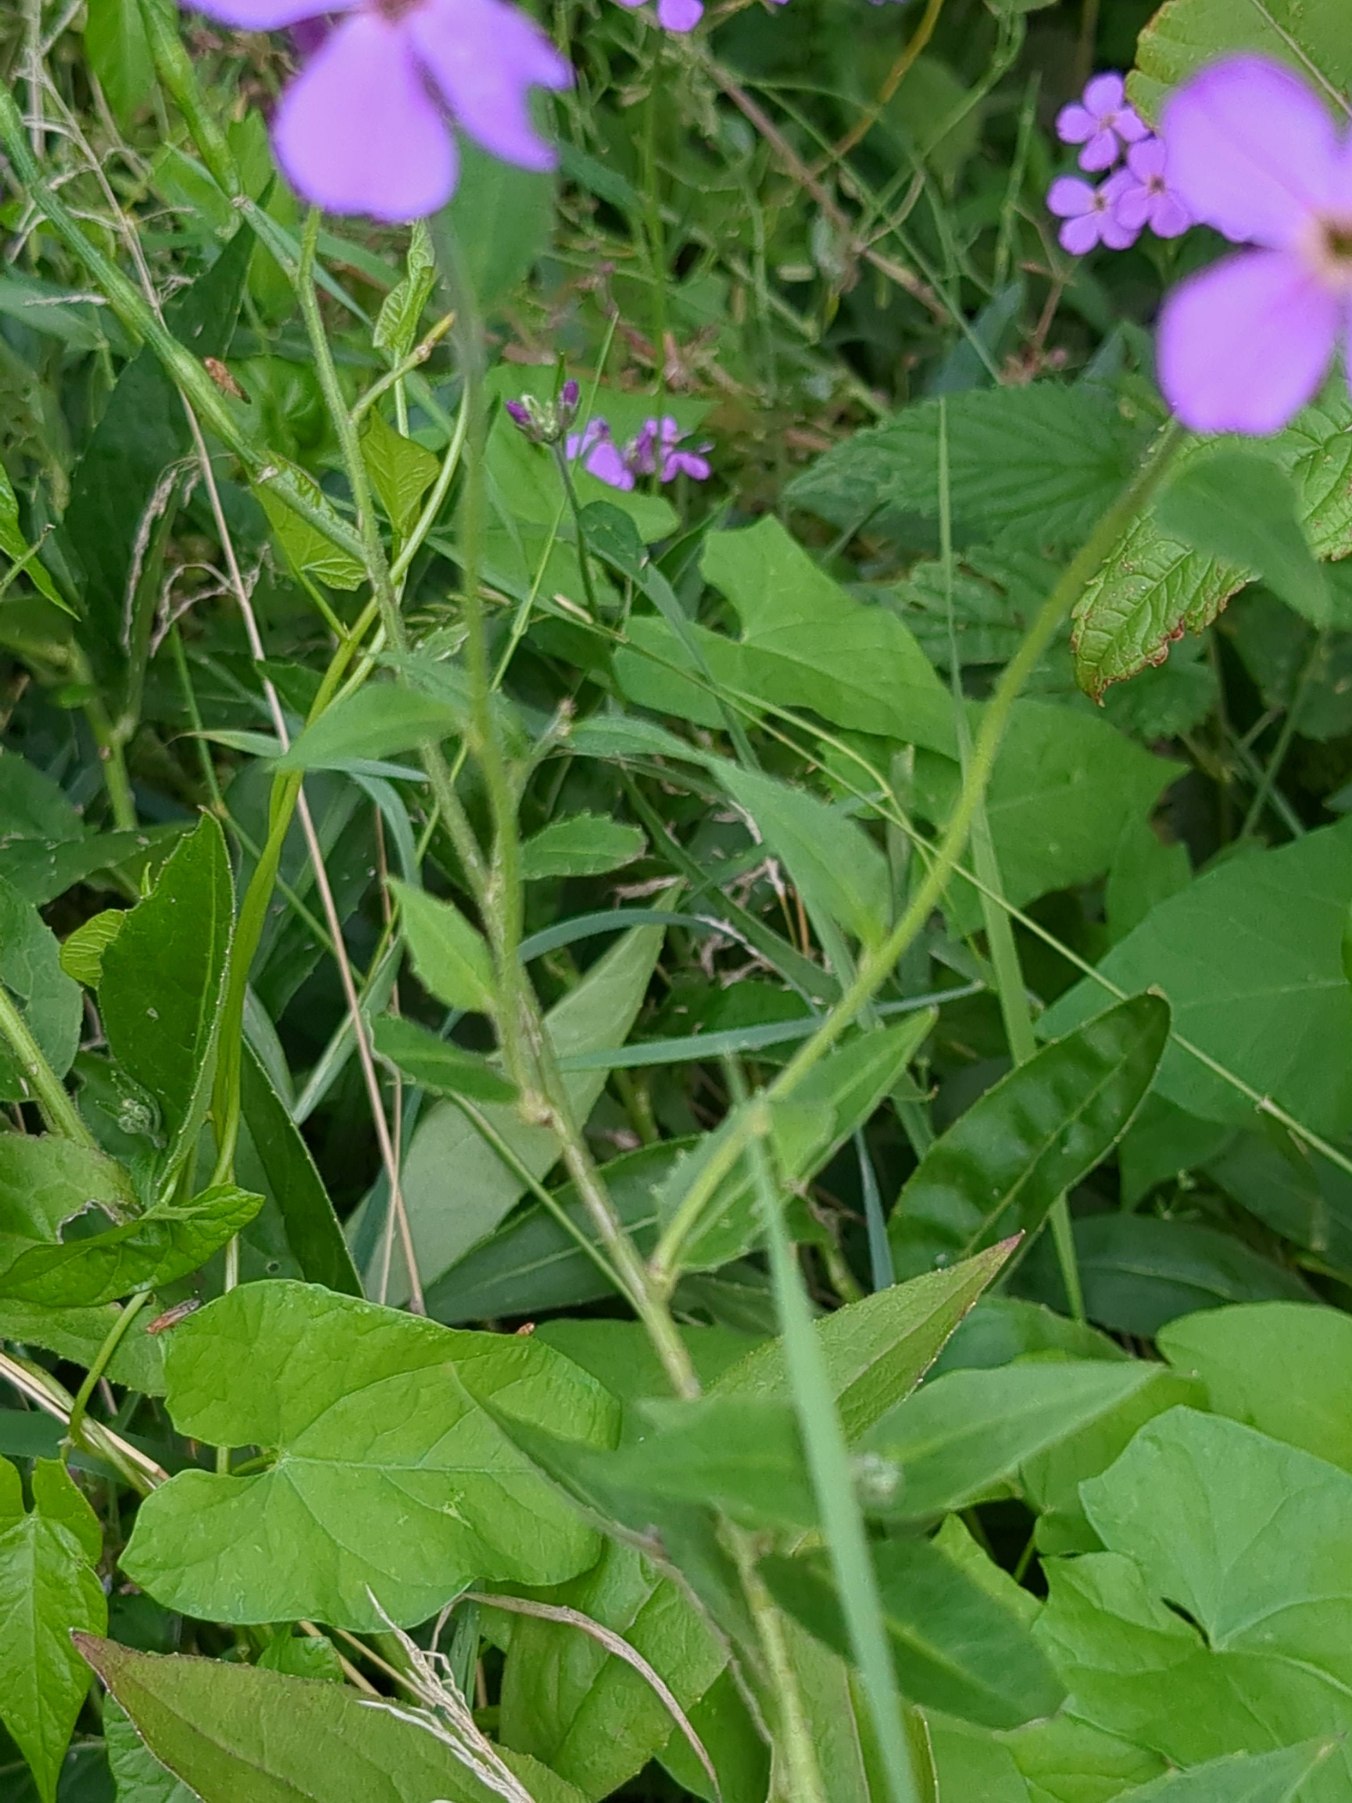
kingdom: Plantae
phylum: Tracheophyta
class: Magnoliopsida
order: Brassicales
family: Brassicaceae
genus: Hesperis
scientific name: Hesperis matronalis
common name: Aftenstjerne
